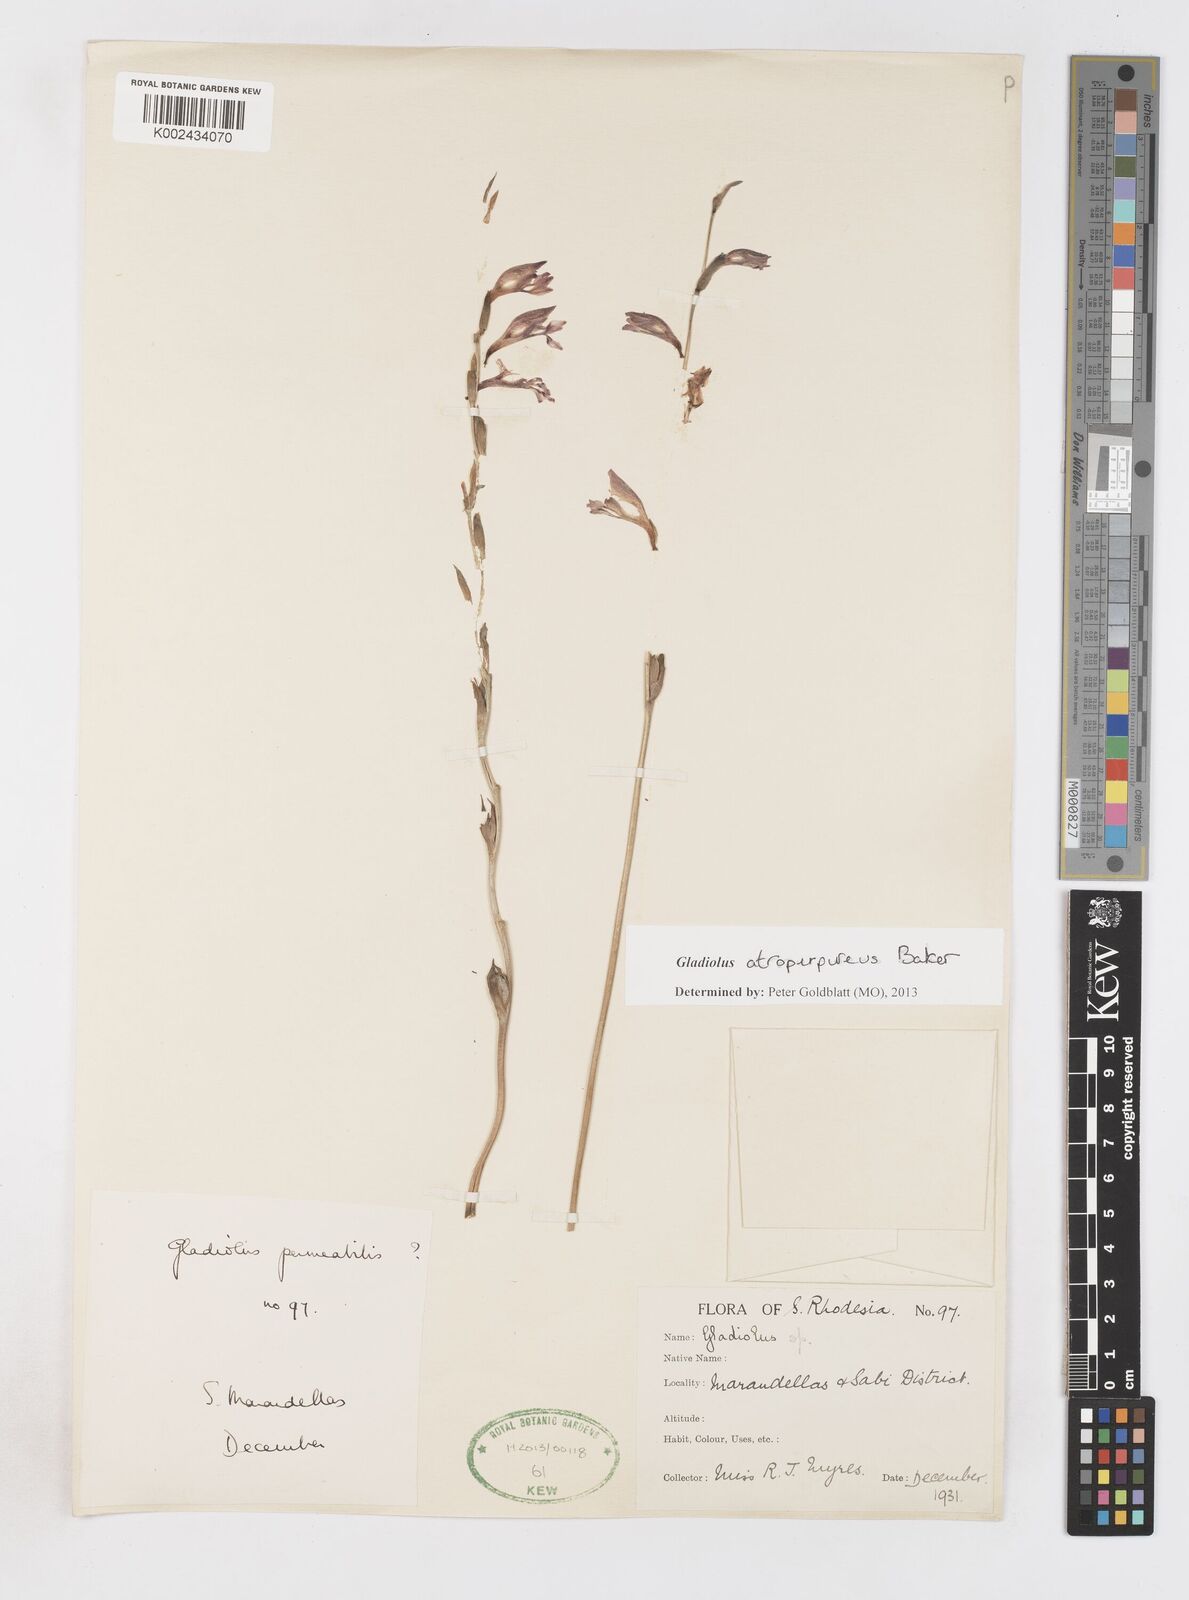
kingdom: Plantae
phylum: Tracheophyta
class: Liliopsida
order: Asparagales
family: Iridaceae
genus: Gladiolus
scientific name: Gladiolus atropurpureus
